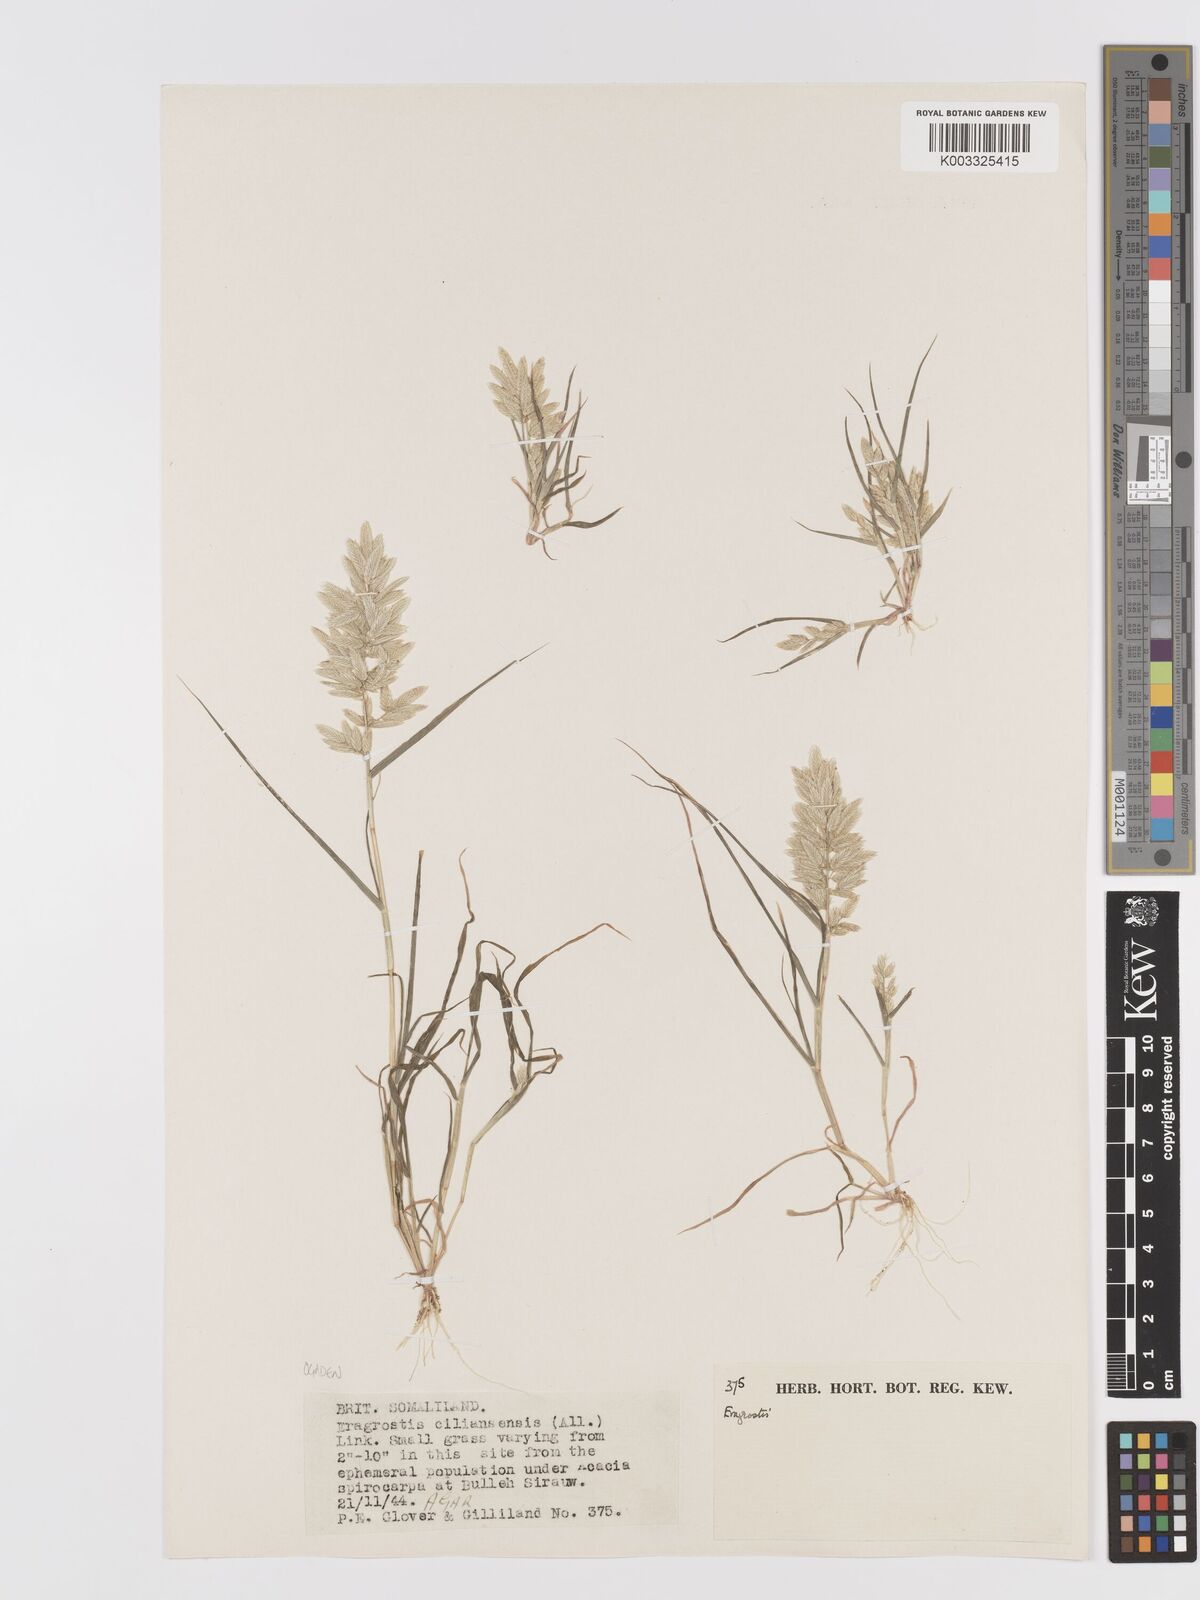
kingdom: Plantae
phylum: Tracheophyta
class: Liliopsida
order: Poales
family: Poaceae
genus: Eragrostis
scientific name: Eragrostis cilianensis
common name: Stinkgrass
